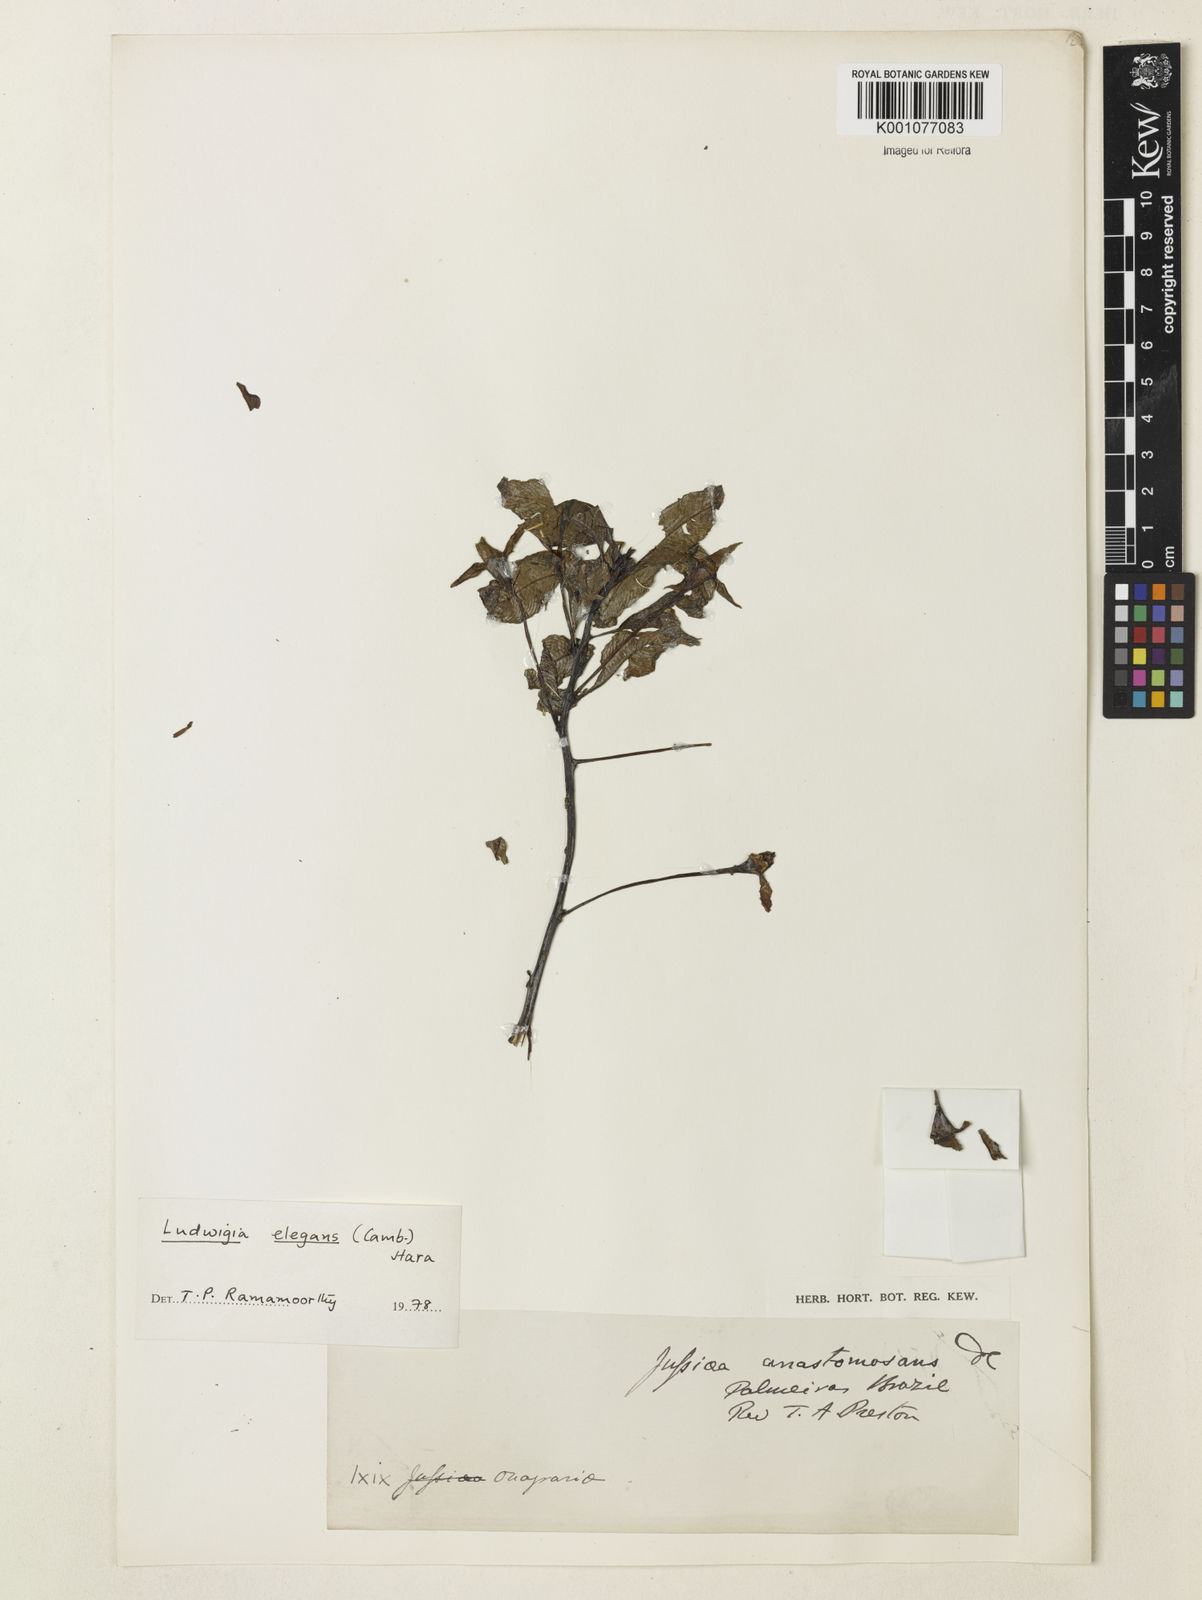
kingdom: Plantae
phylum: Tracheophyta
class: Magnoliopsida
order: Malpighiales
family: Phyllanthaceae
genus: Breynia
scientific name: Breynia
